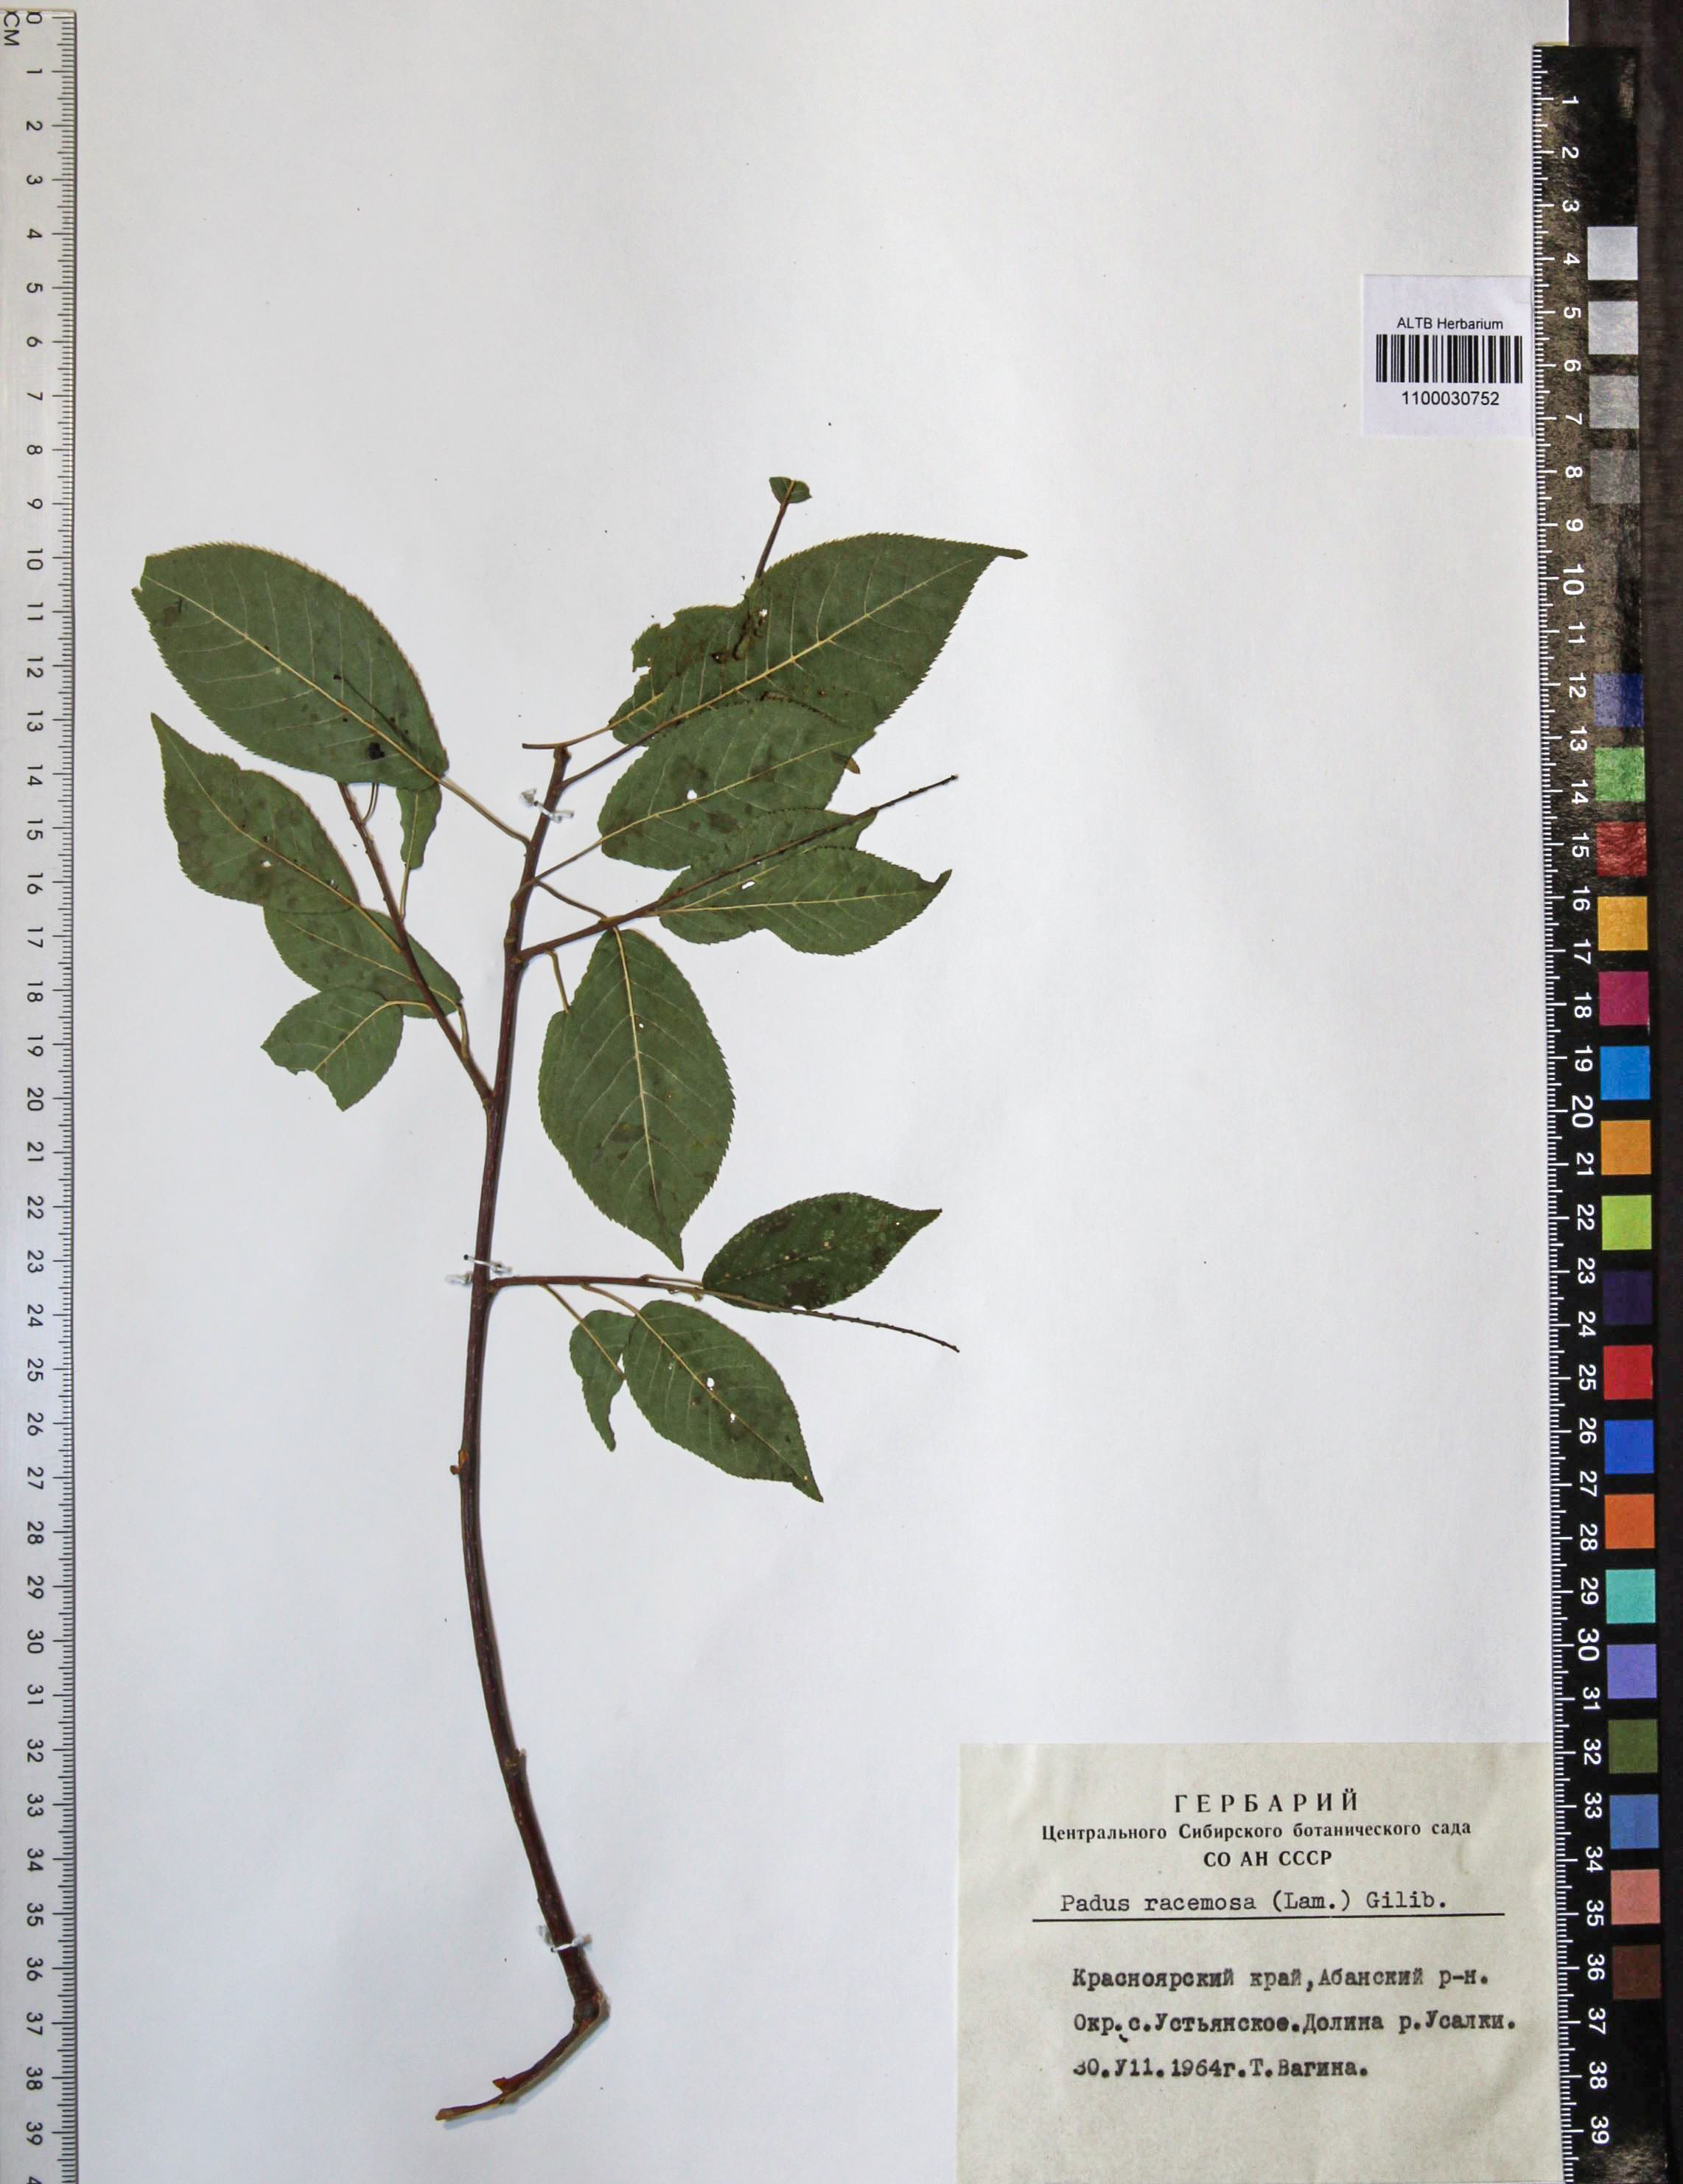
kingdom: Plantae
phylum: Tracheophyta
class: Magnoliopsida
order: Rosales
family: Rosaceae
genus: Prunus
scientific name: Prunus padus
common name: Bird cherry
